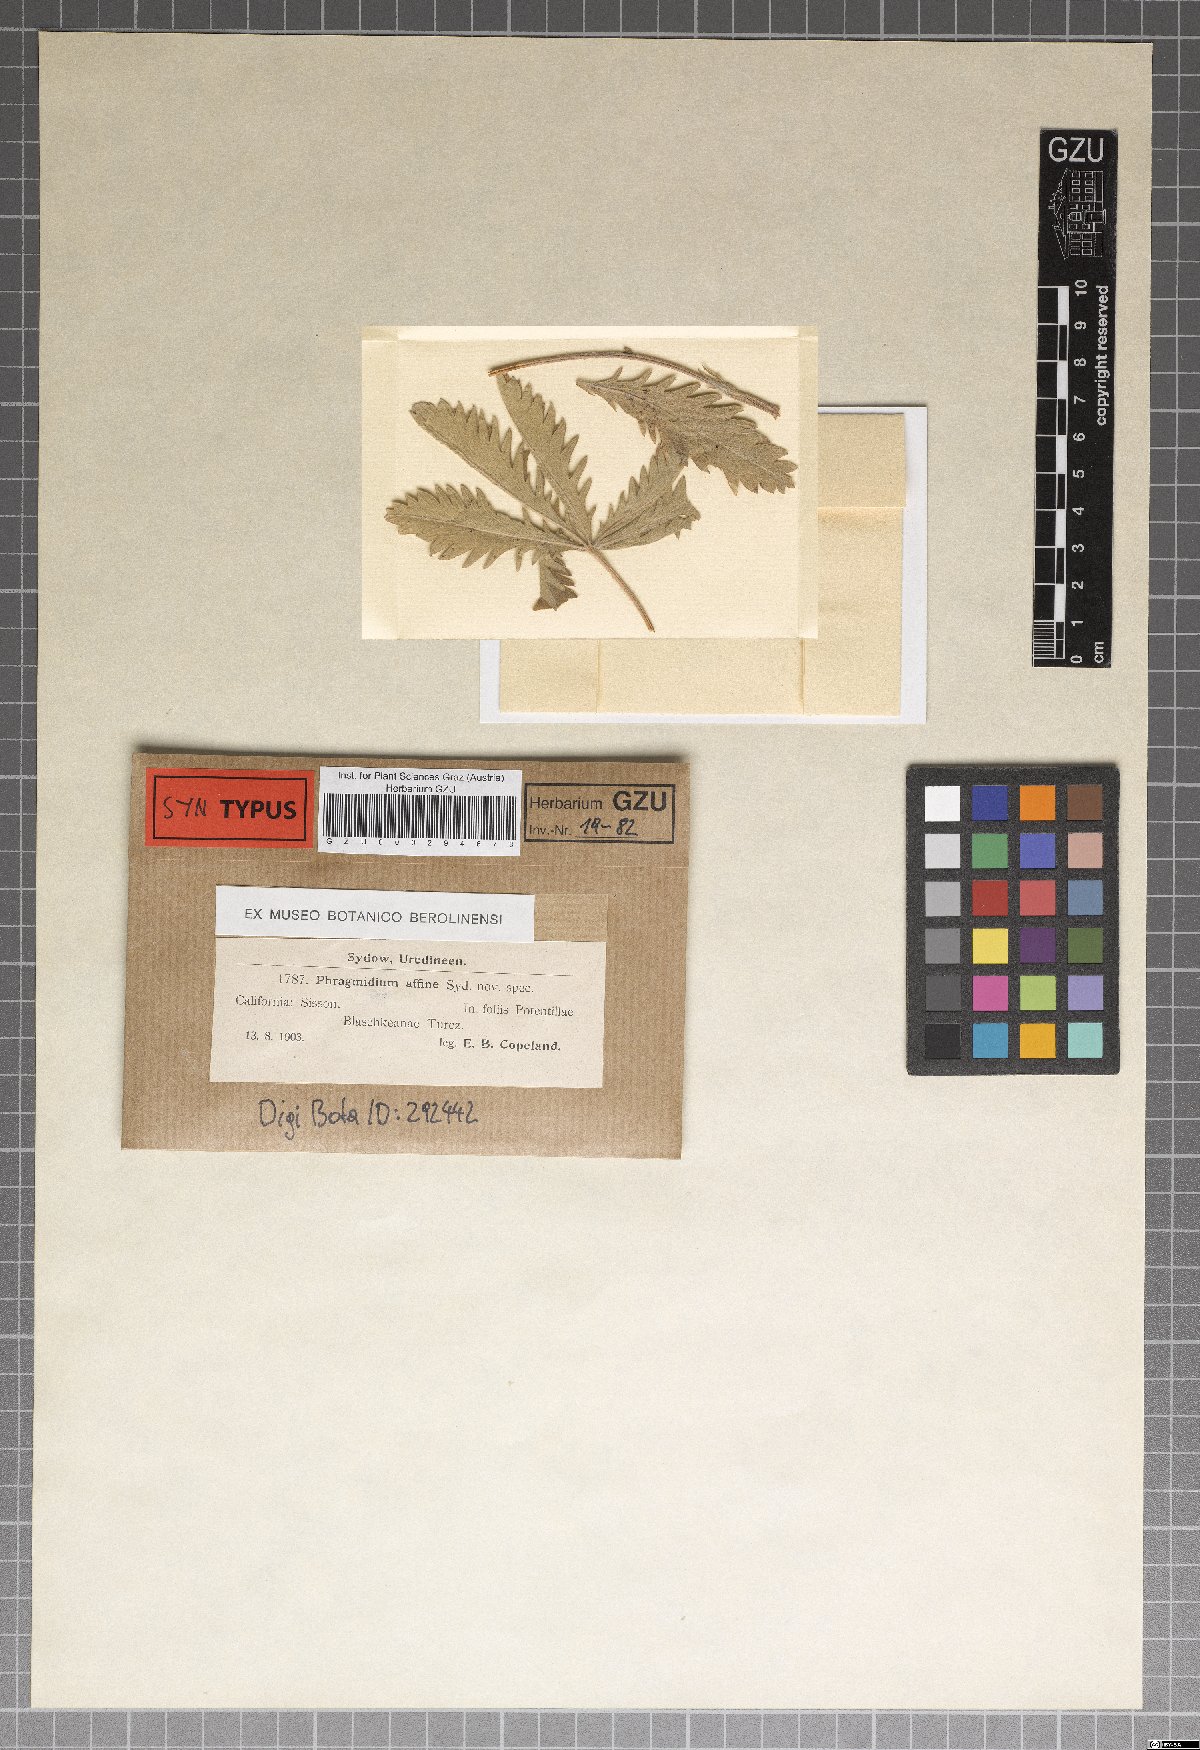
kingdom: Fungi
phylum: Basidiomycota
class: Pucciniomycetes
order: Pucciniales
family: Phragmidiaceae
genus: Phragmidium
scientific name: Phragmidium affine
